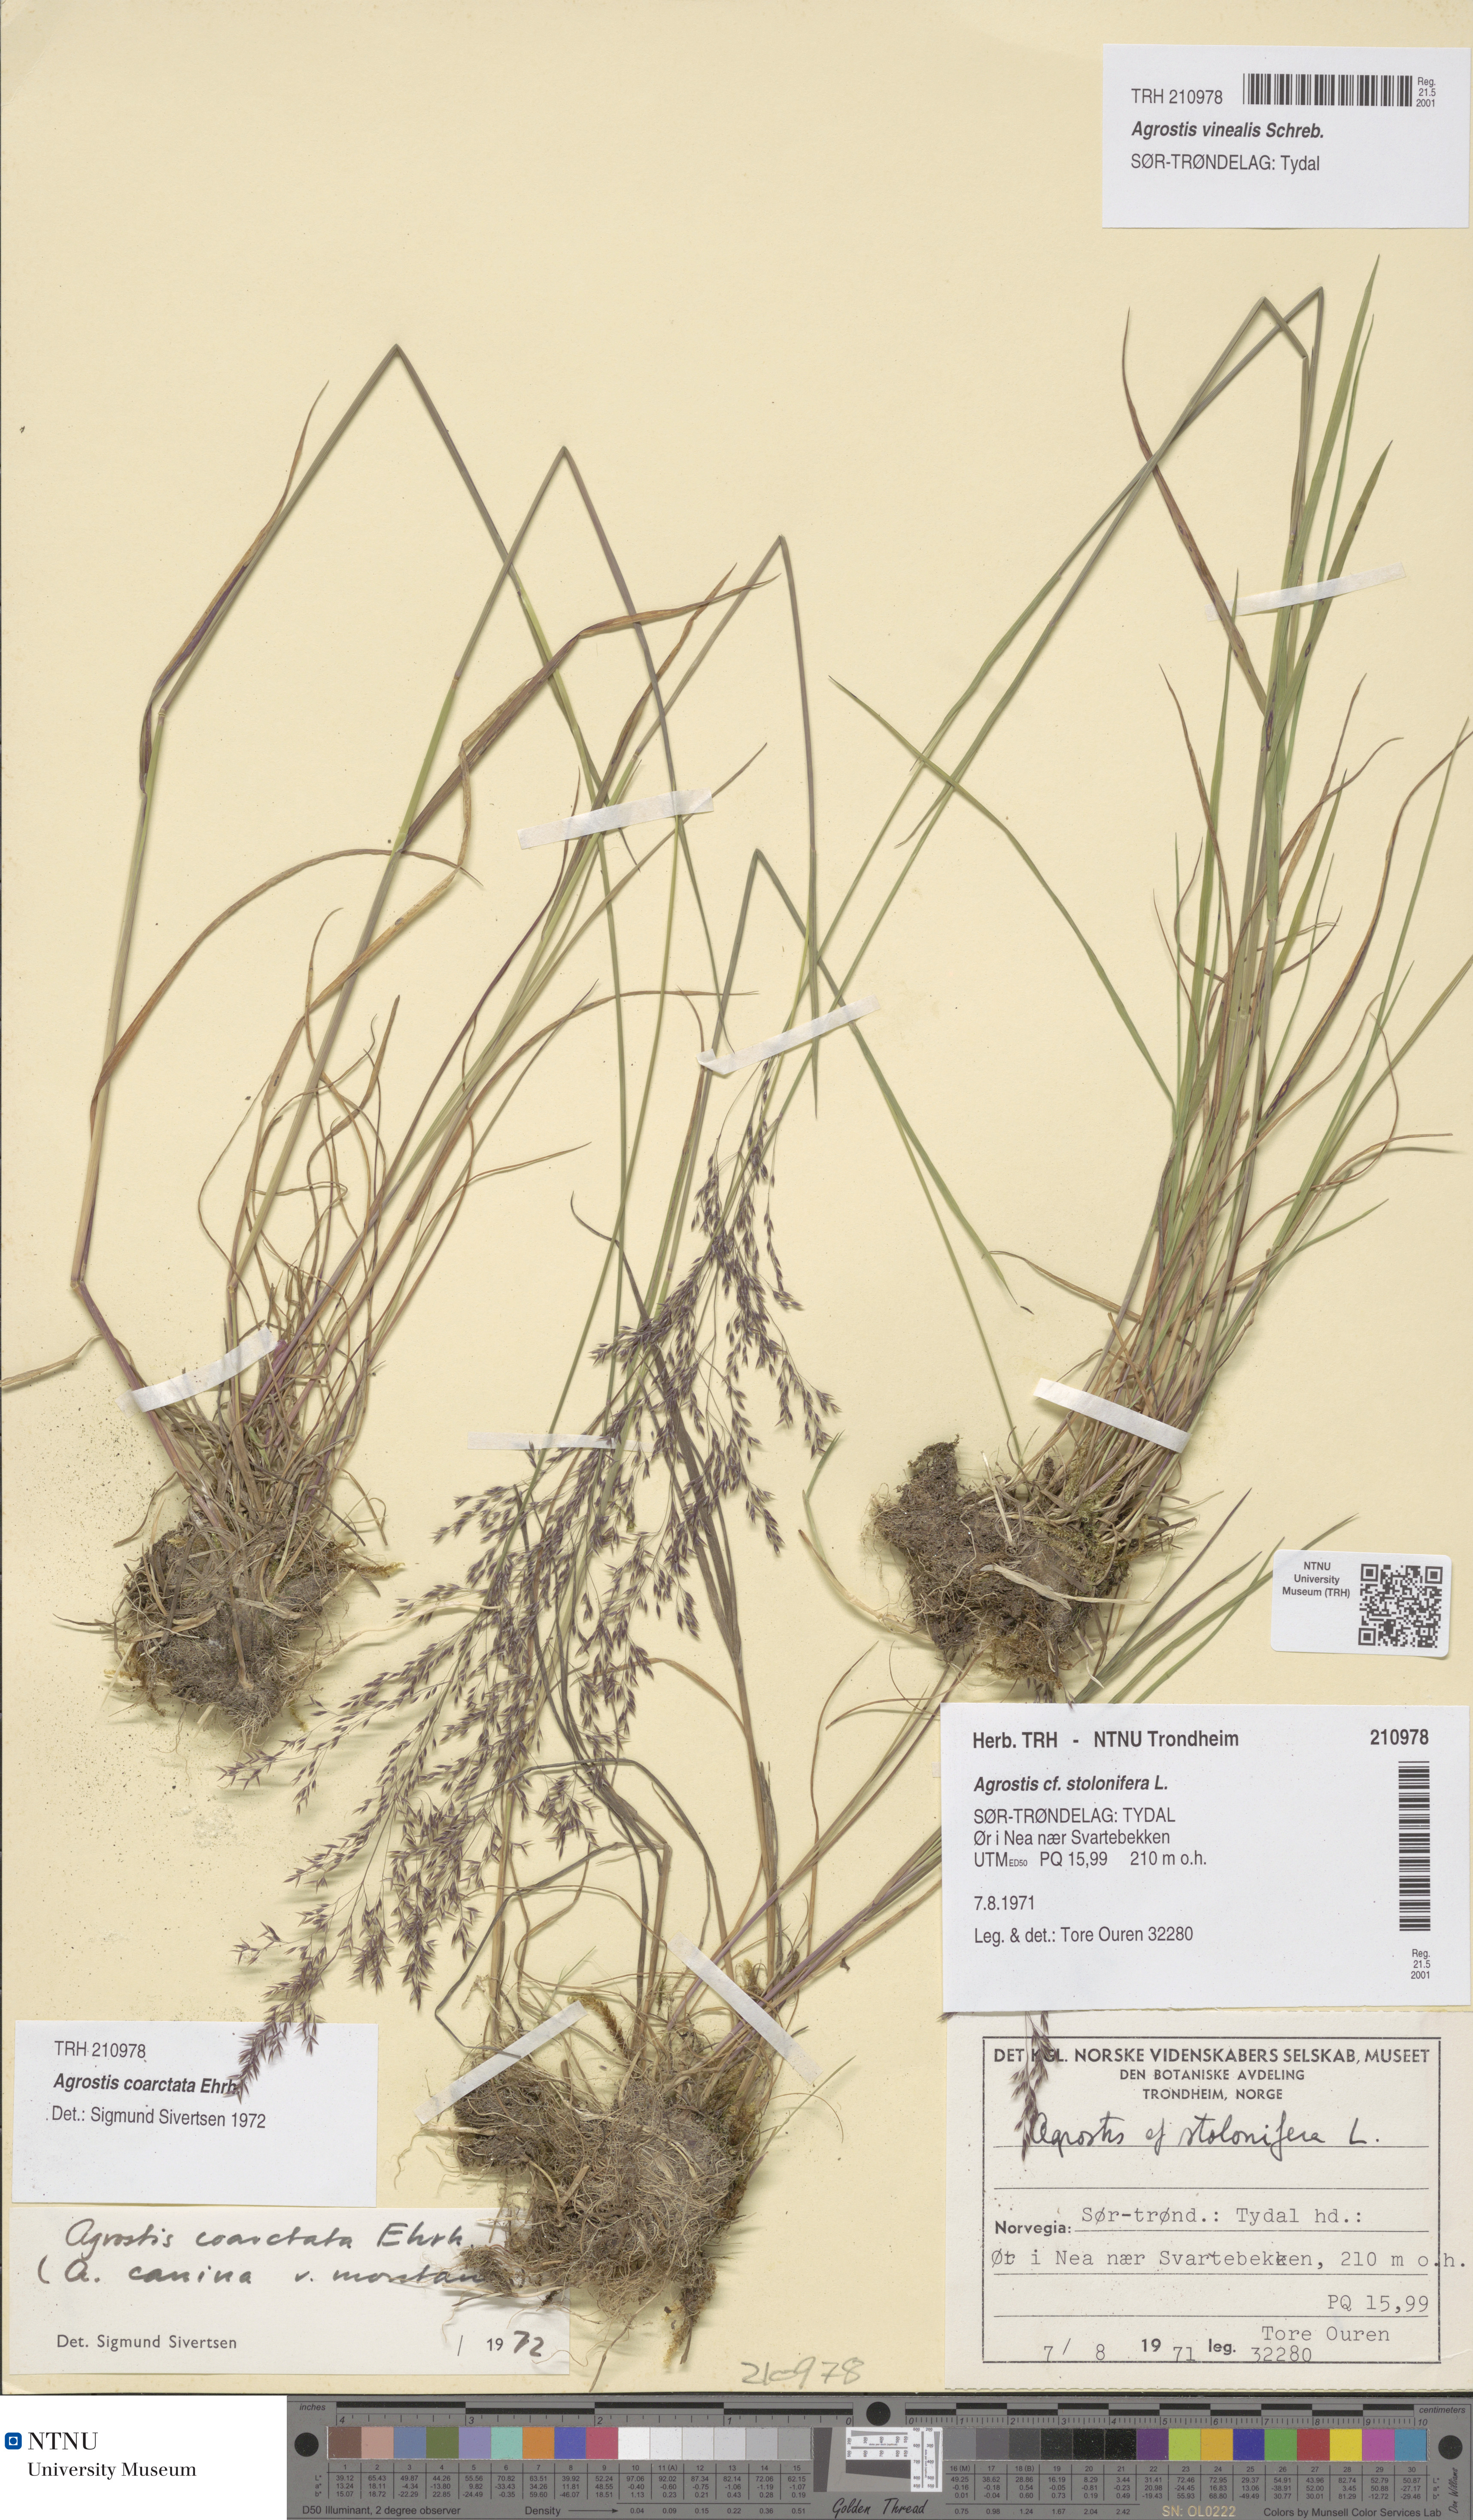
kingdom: Plantae
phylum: Tracheophyta
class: Liliopsida
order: Poales
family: Poaceae
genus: Agrostis
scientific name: Agrostis vinealis
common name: Brown bent
